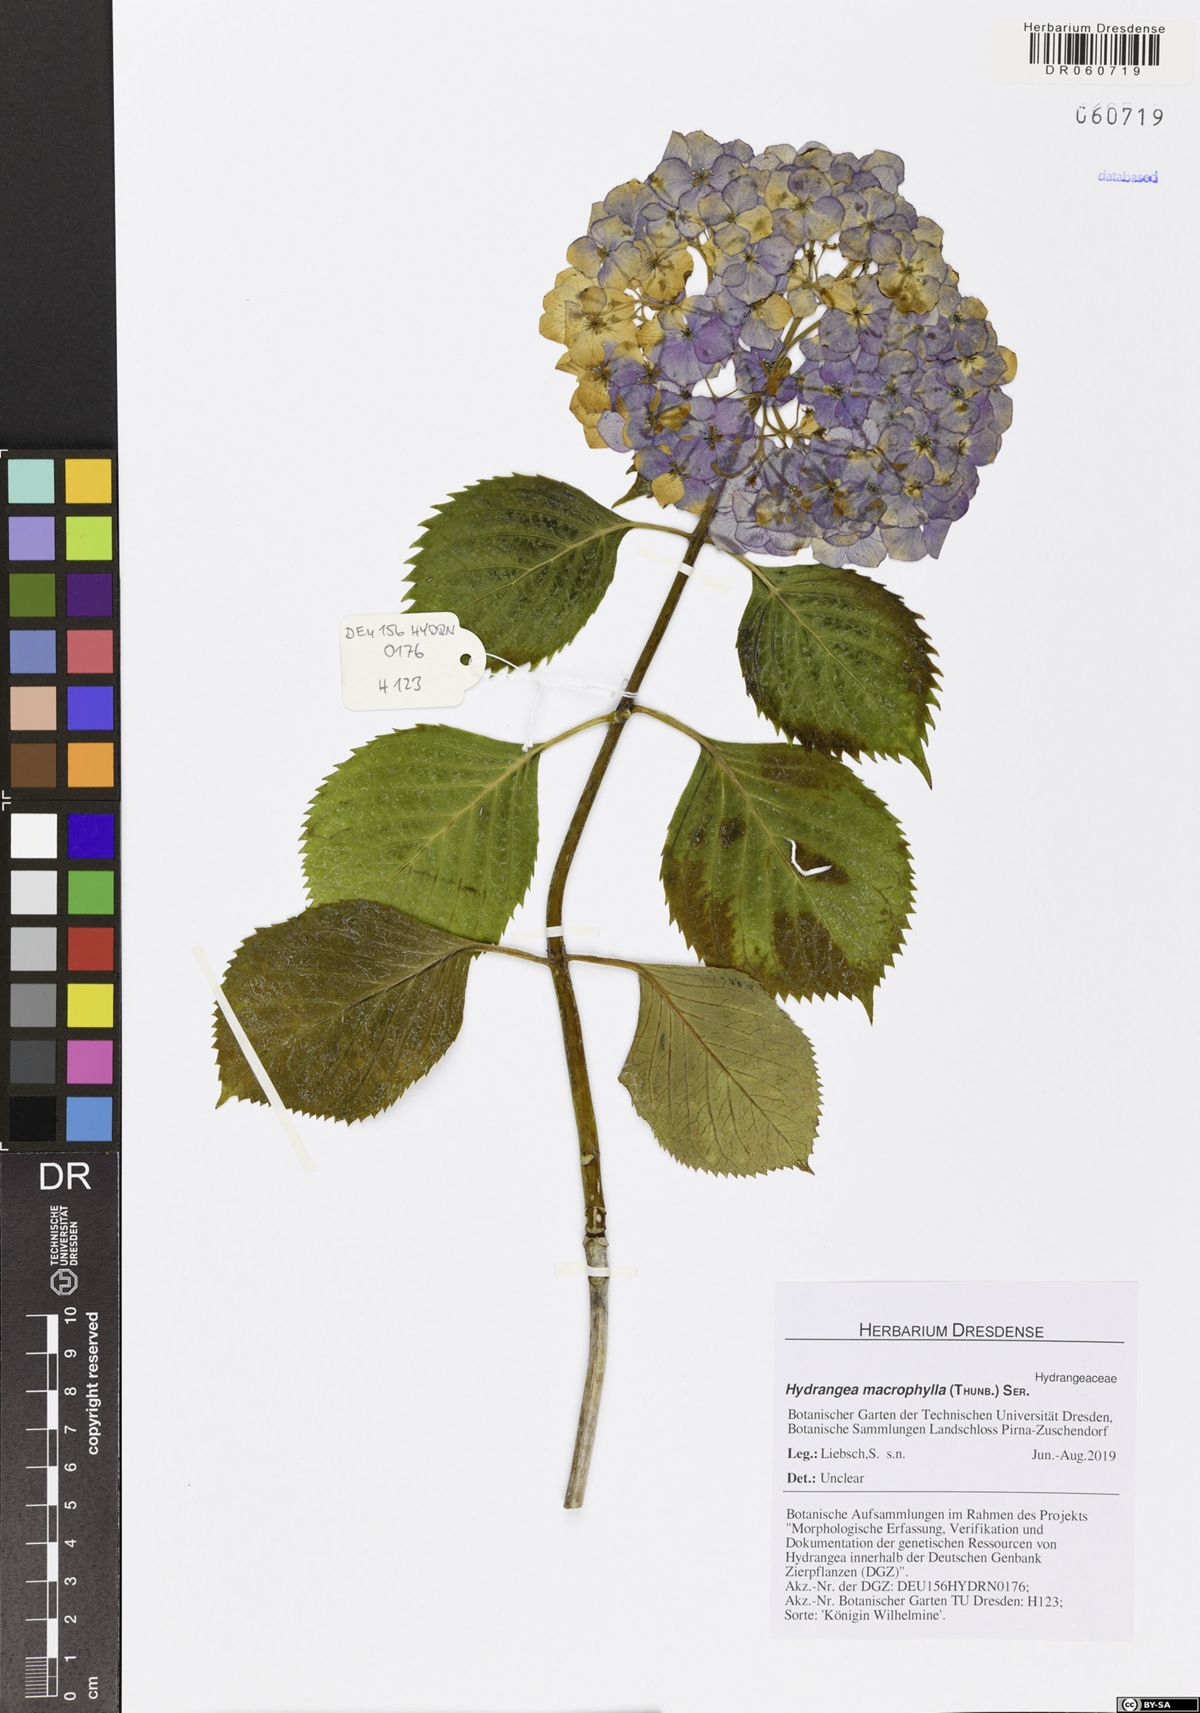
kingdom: Plantae
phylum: Tracheophyta
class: Magnoliopsida
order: Cornales
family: Hydrangeaceae
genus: Hydrangea
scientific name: Hydrangea macrophylla
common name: Hydrangea
